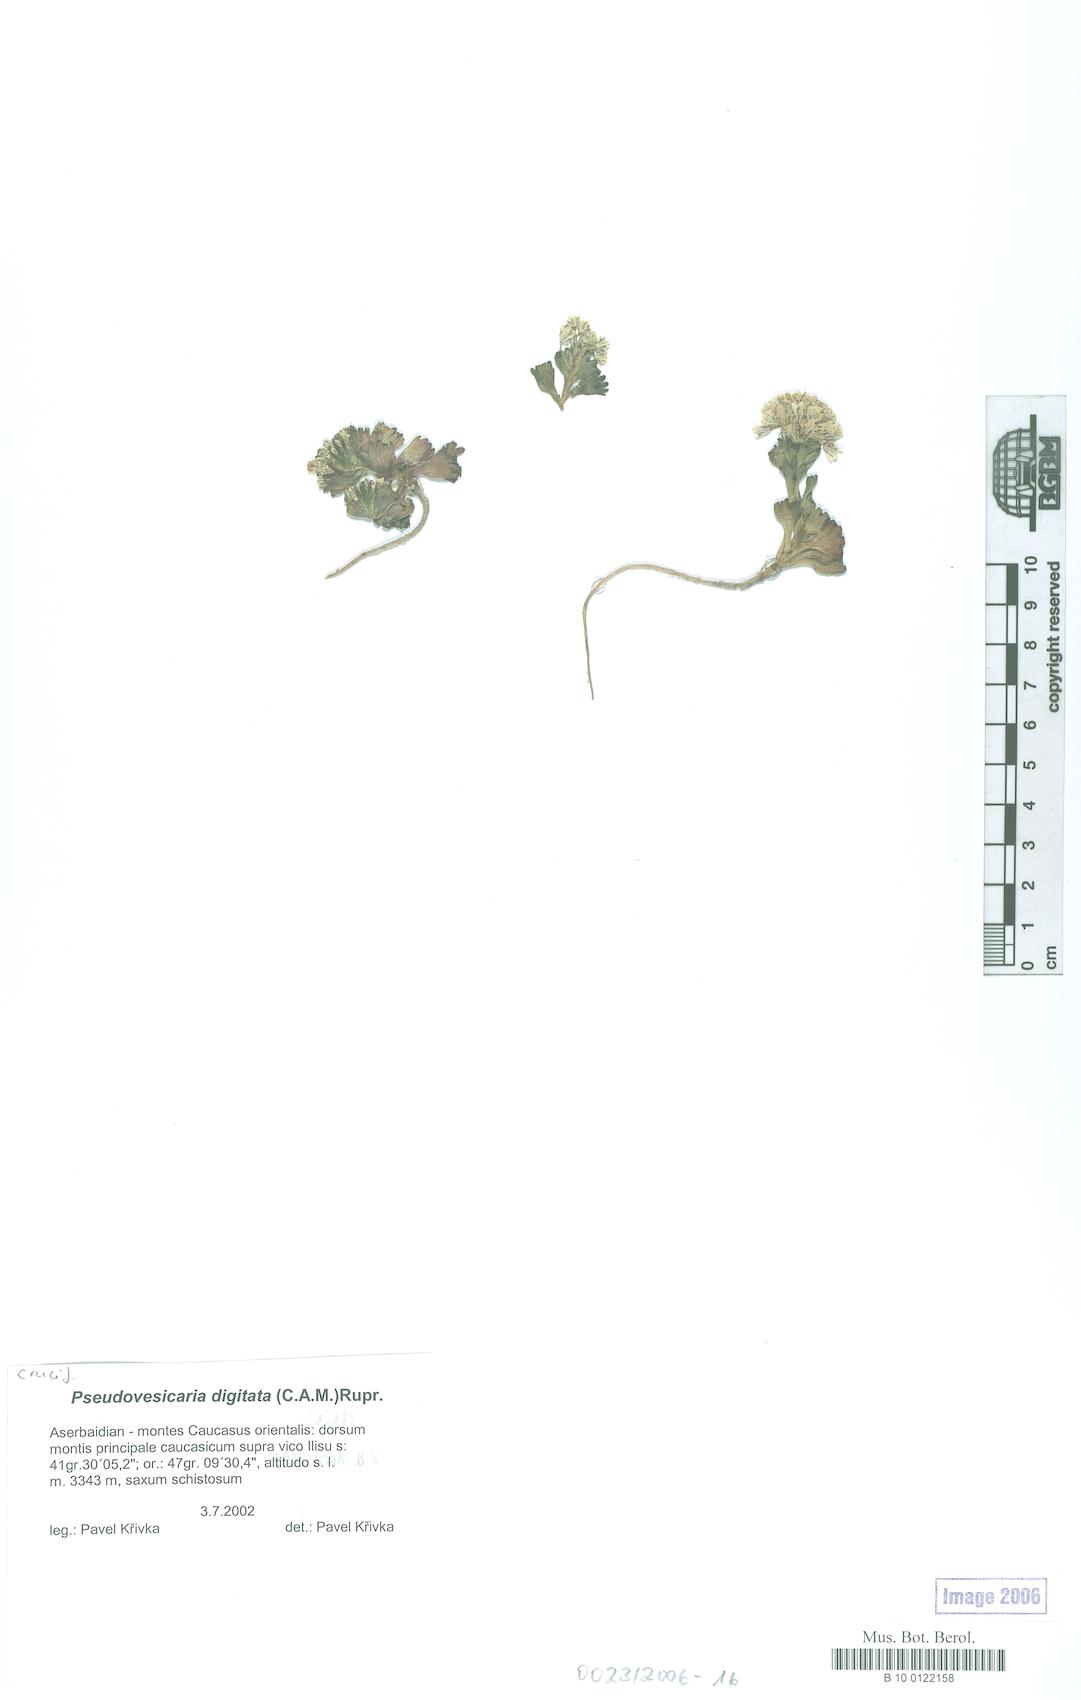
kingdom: Plantae
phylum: Tracheophyta
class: Magnoliopsida
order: Brassicales
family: Brassicaceae
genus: Pseudovesicaria
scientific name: Pseudovesicaria digitata
